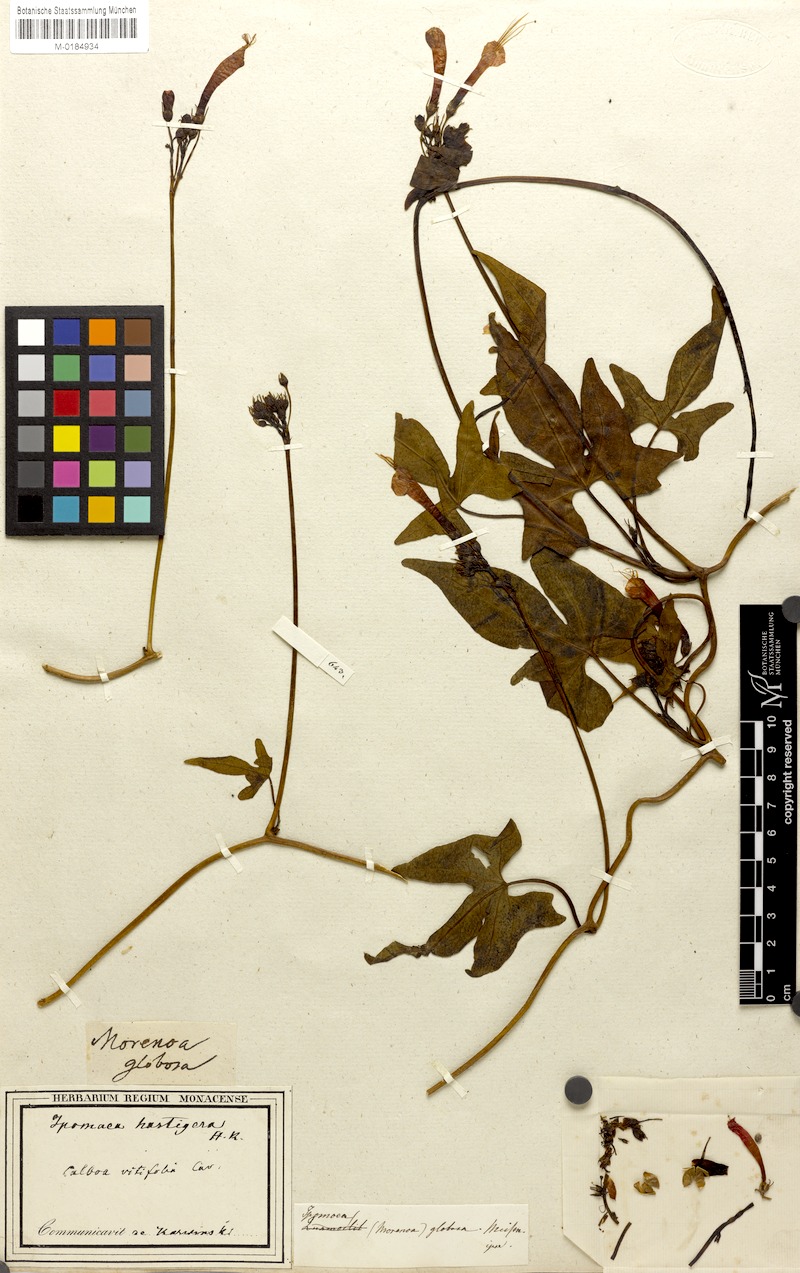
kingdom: Plantae
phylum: Tracheophyta
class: Magnoliopsida
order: Solanales
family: Convolvulaceae
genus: Ipomoea
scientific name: Ipomoea hederifolia
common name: Ivy-leaf morning-glory
